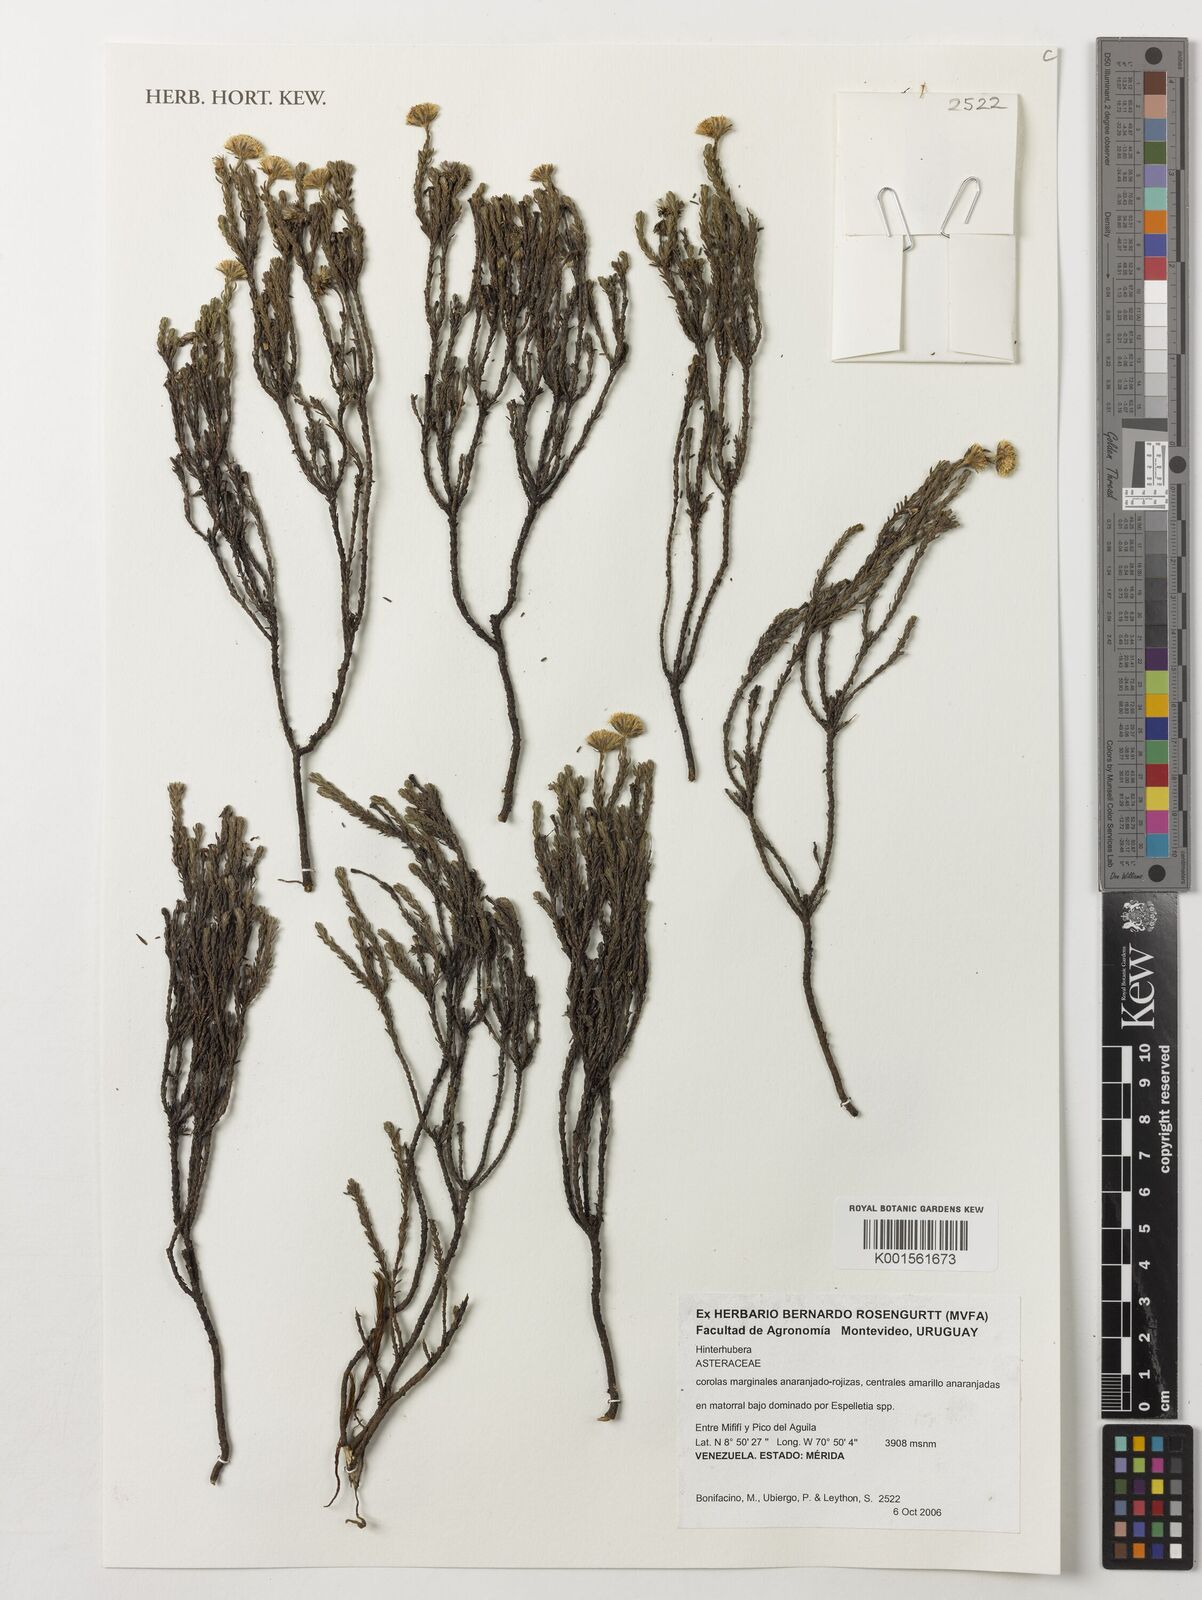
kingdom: Plantae
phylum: Tracheophyta
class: Magnoliopsida
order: Asterales
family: Asteraceae
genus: Hinterhubera
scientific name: Hinterhubera
